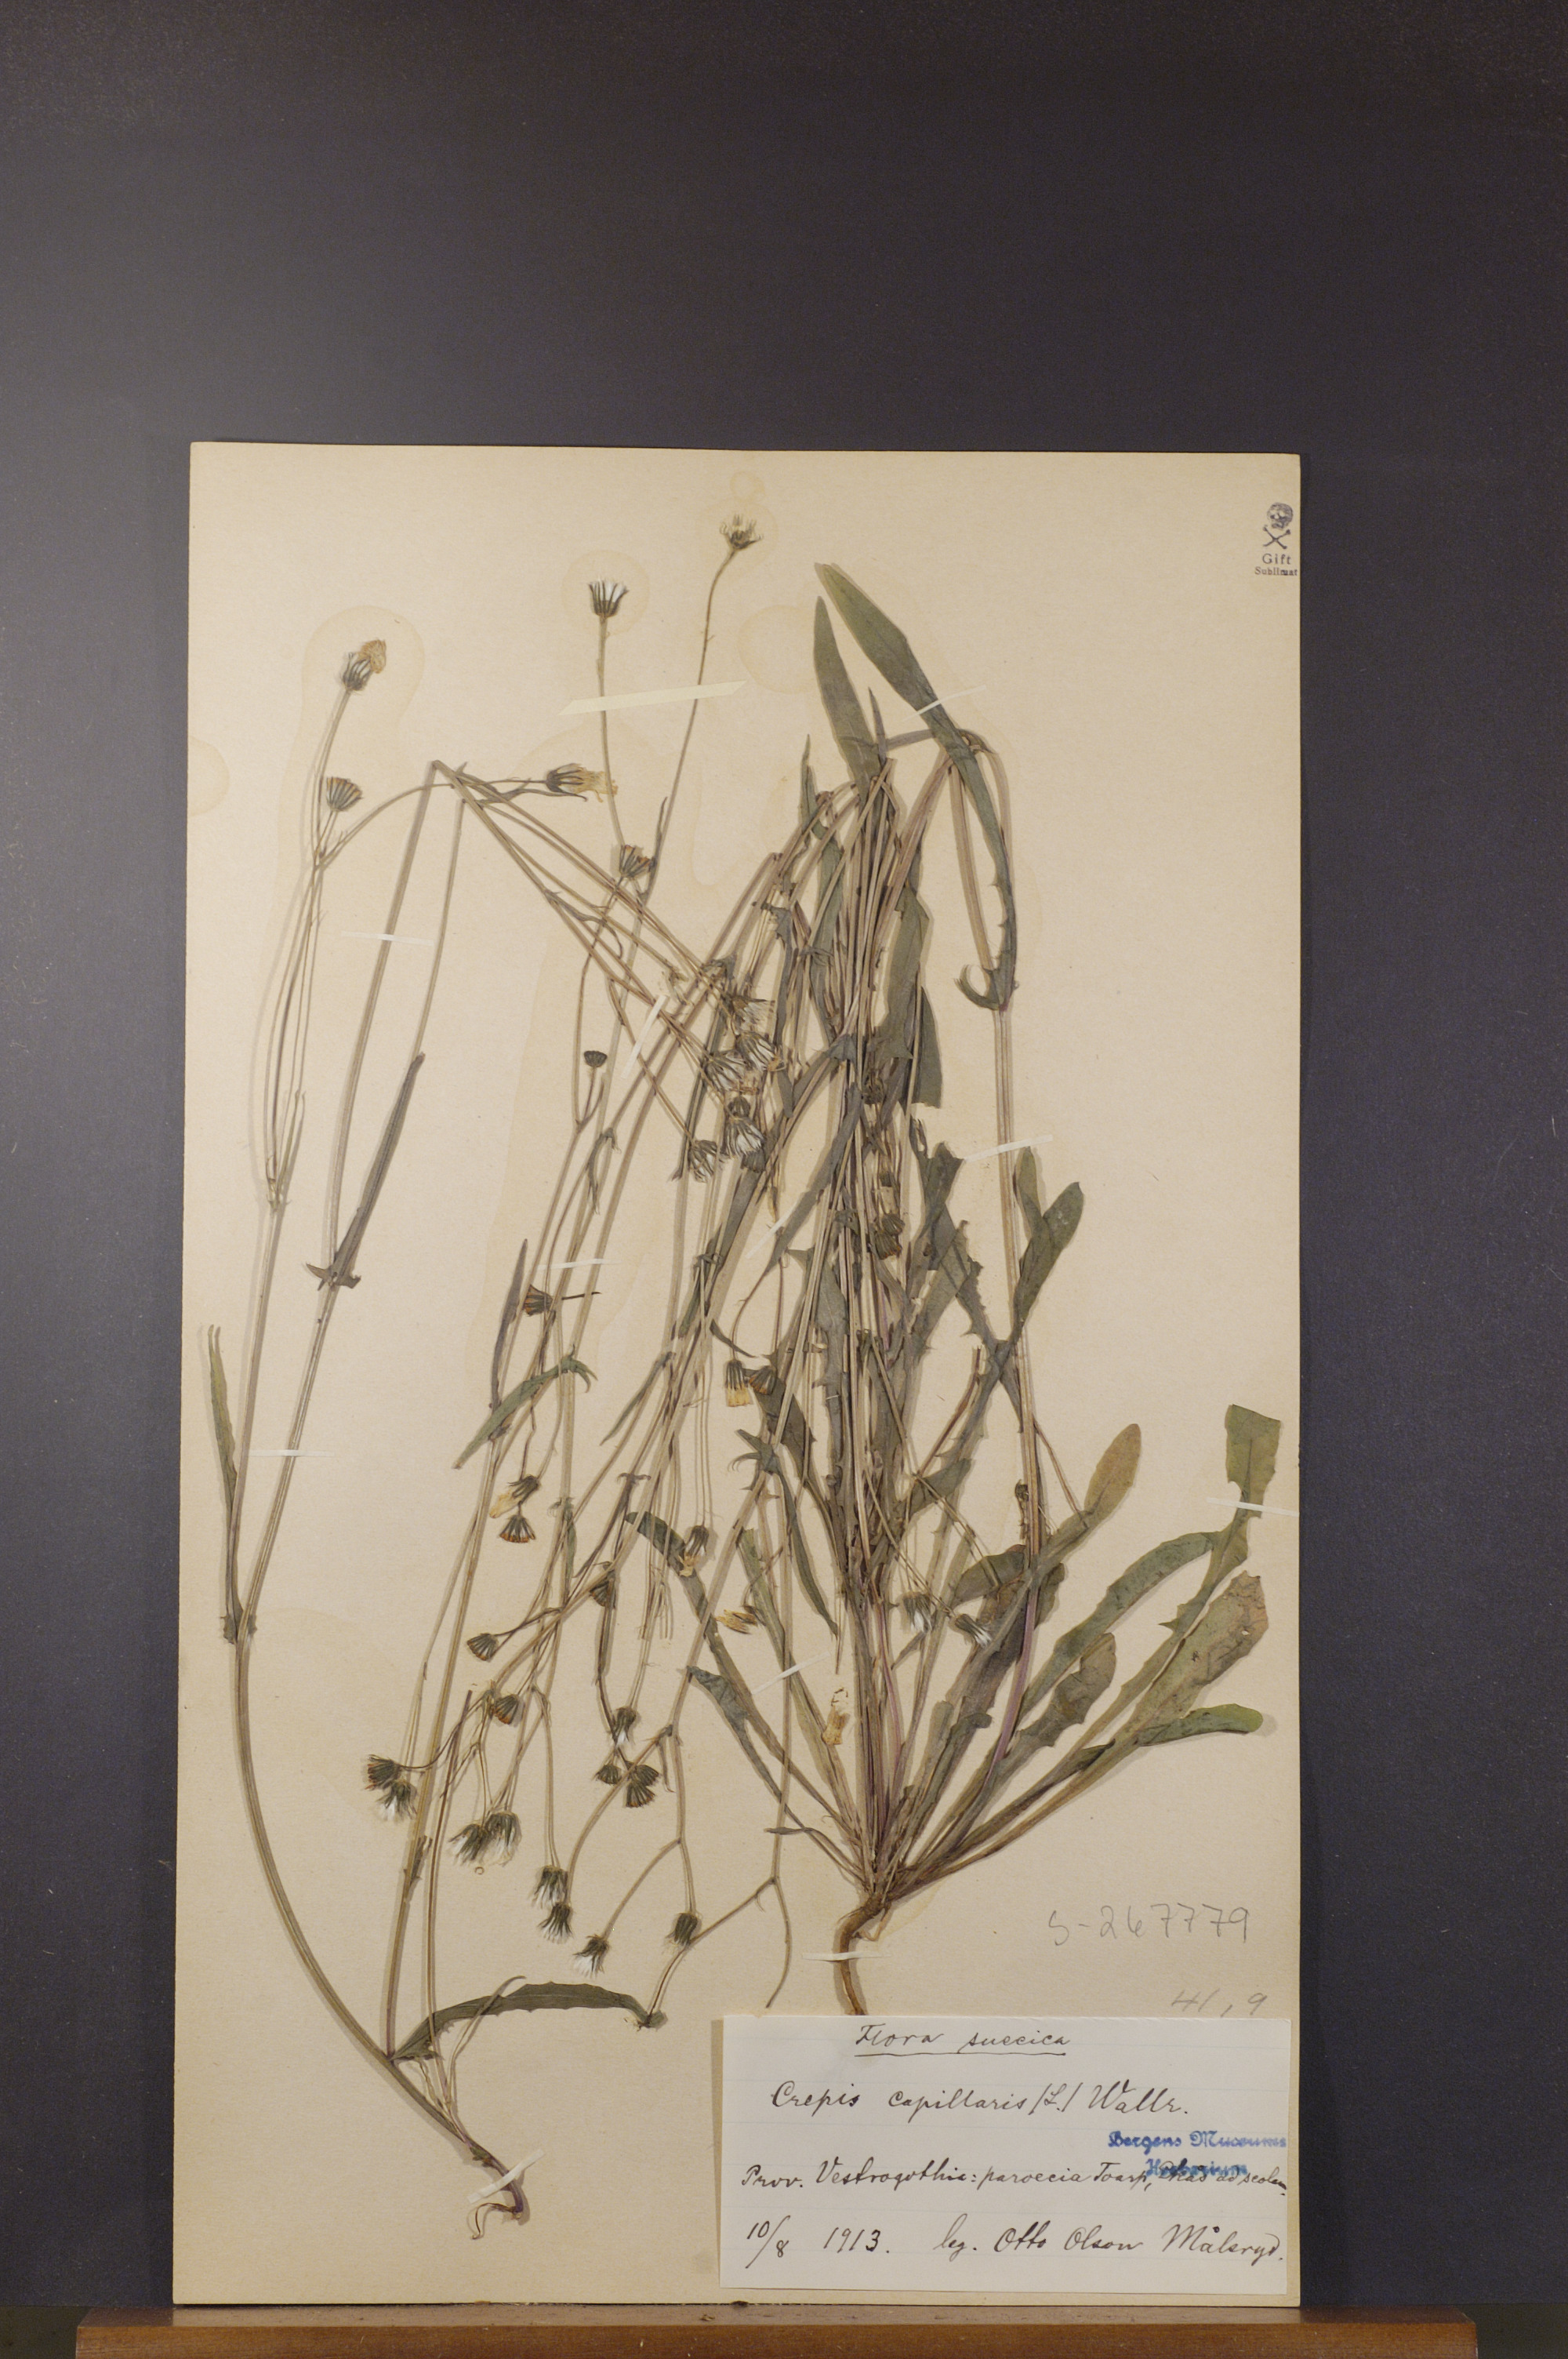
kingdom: Plantae
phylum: Tracheophyta
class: Magnoliopsida
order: Asterales
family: Asteraceae
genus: Crepis
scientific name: Crepis capillaris
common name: Smooth hawksbeard
